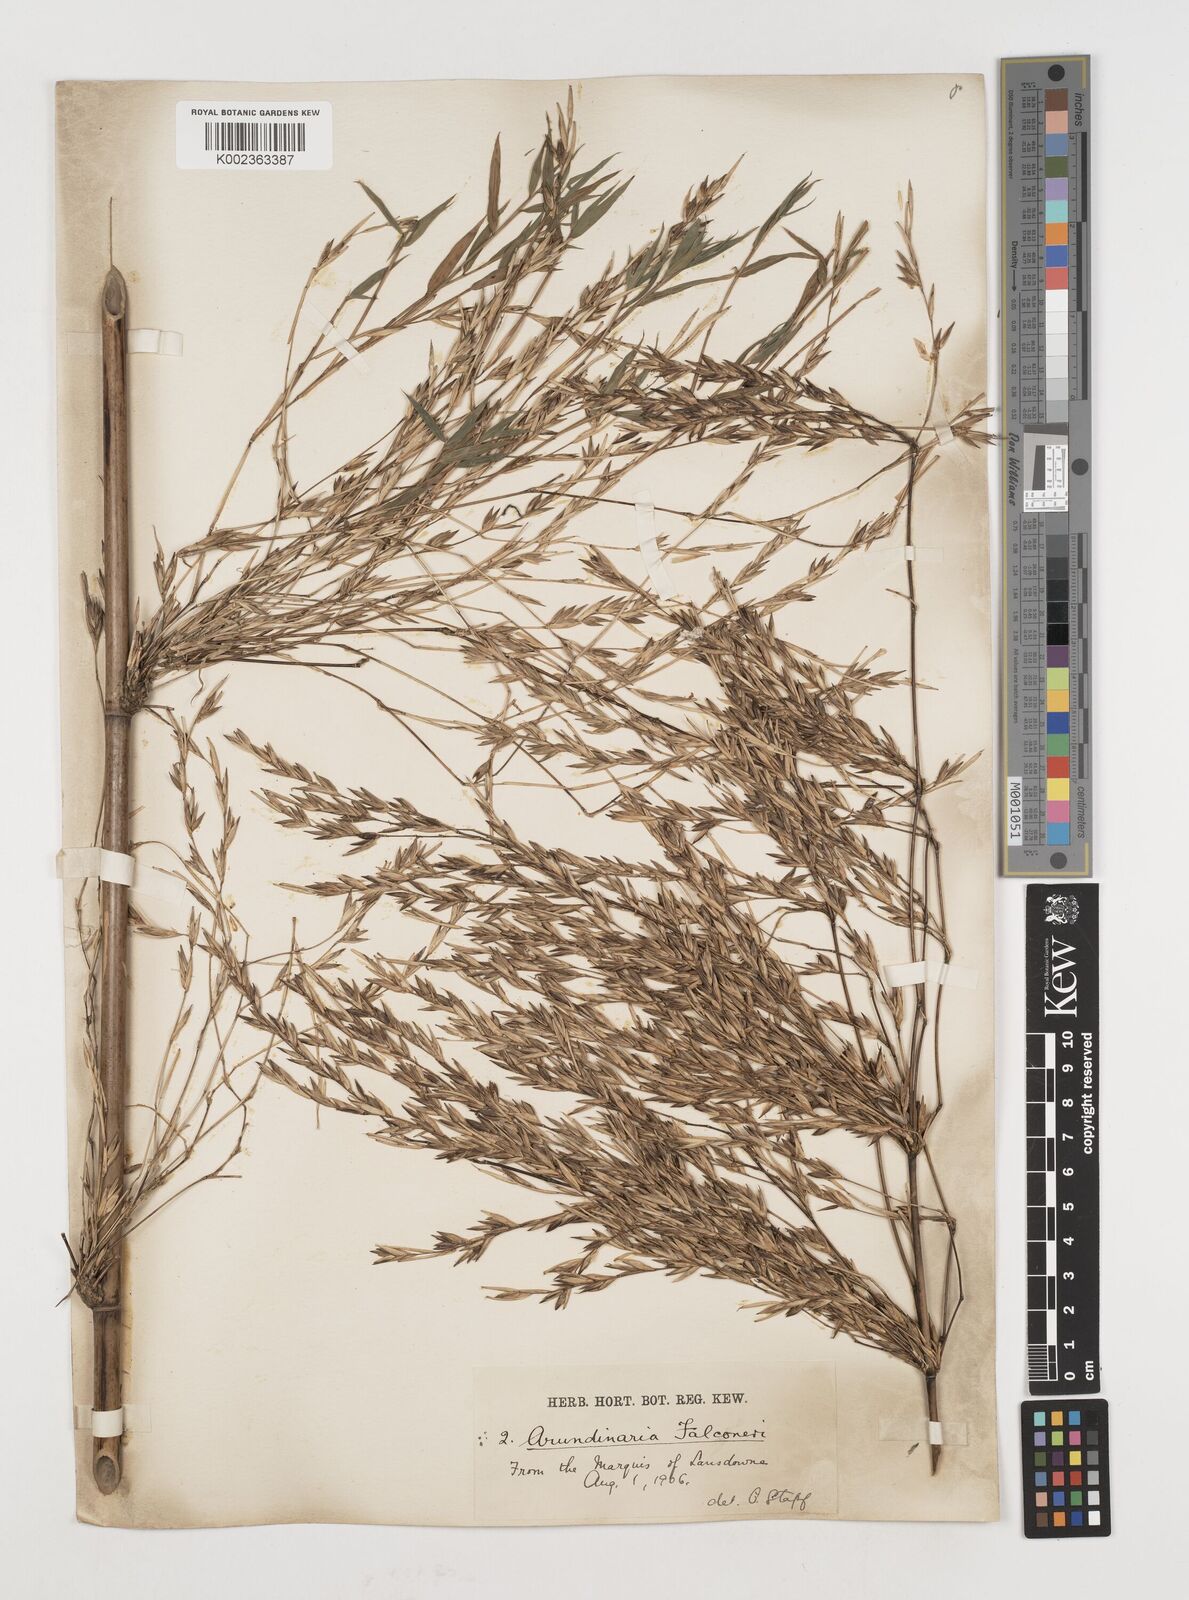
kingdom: Plantae
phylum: Tracheophyta
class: Liliopsida
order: Poales
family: Poaceae
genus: Himalayacalamus
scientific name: Himalayacalamus
